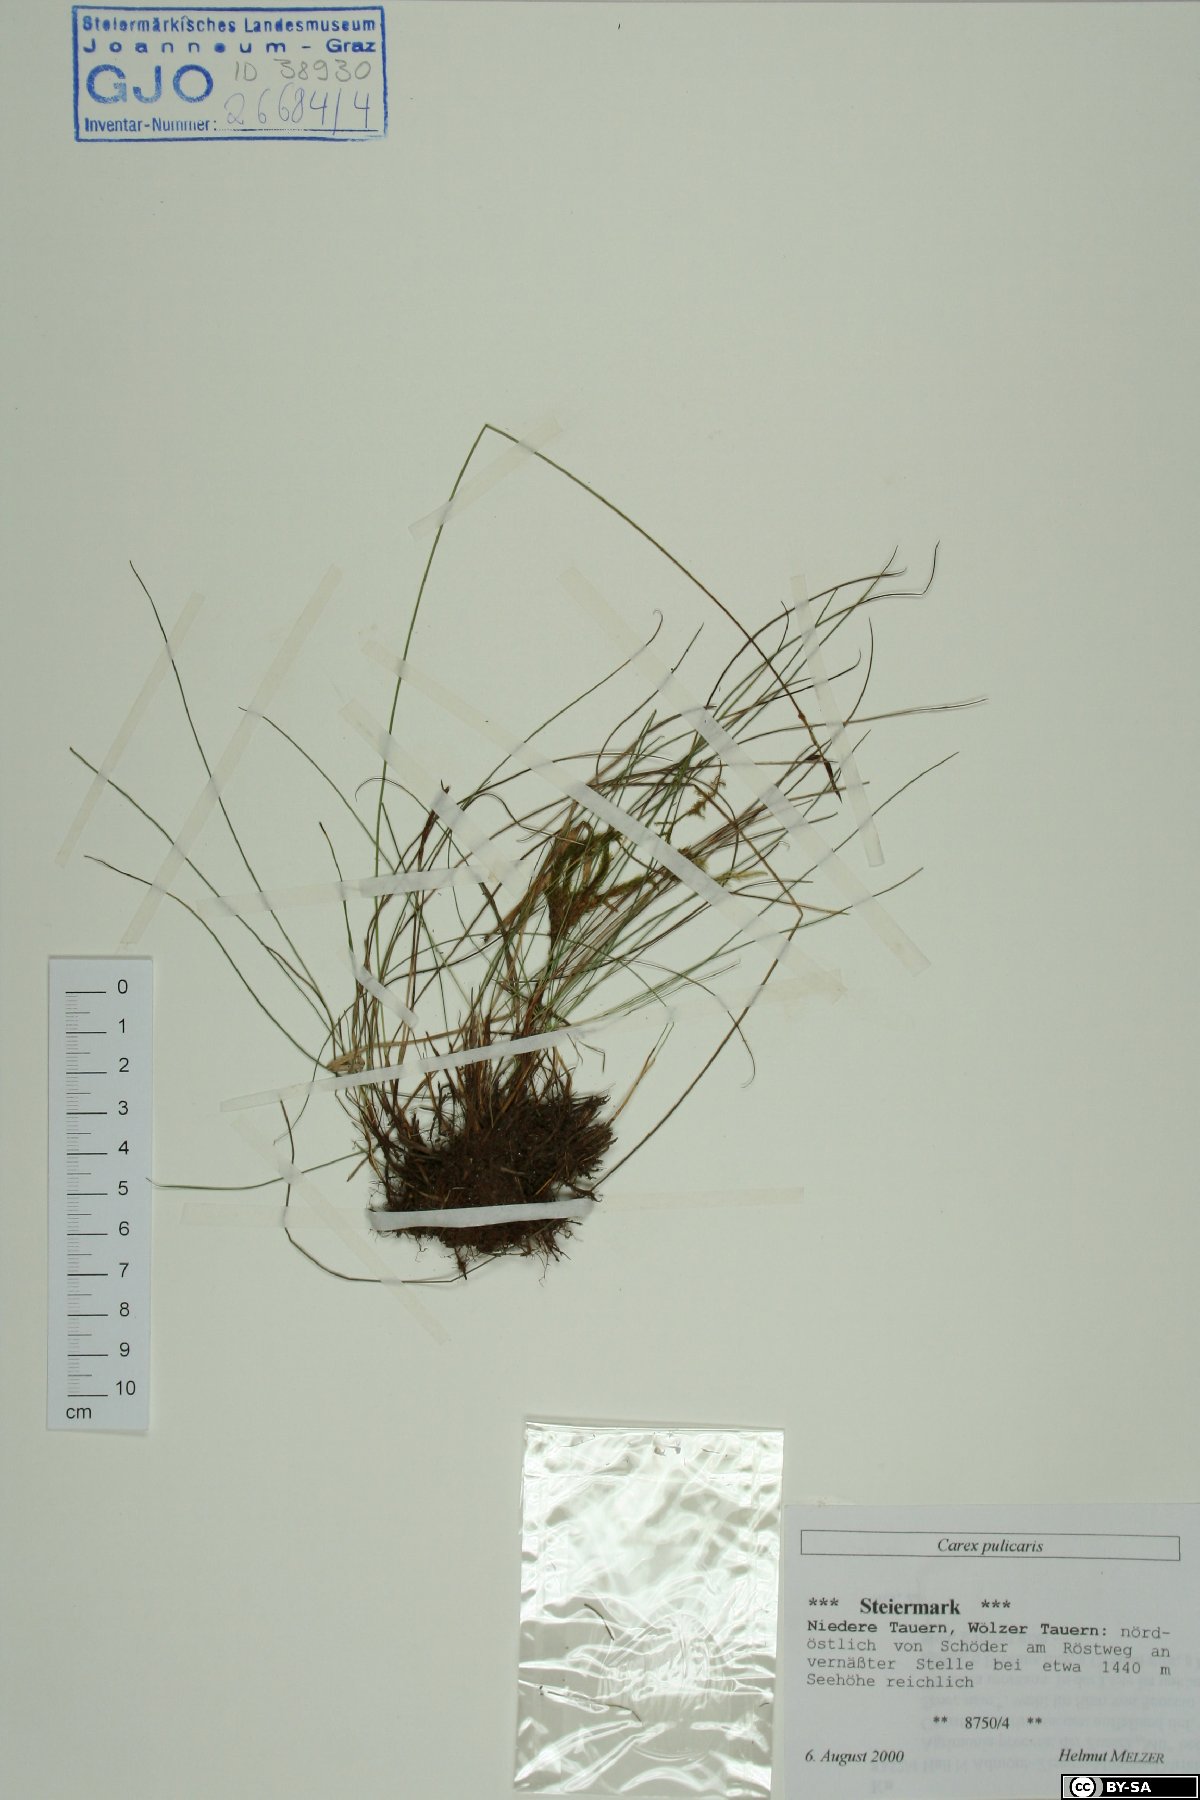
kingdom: Plantae
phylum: Tracheophyta
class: Liliopsida
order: Poales
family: Cyperaceae
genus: Carex
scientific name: Carex pulicaris
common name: Flea sedge
